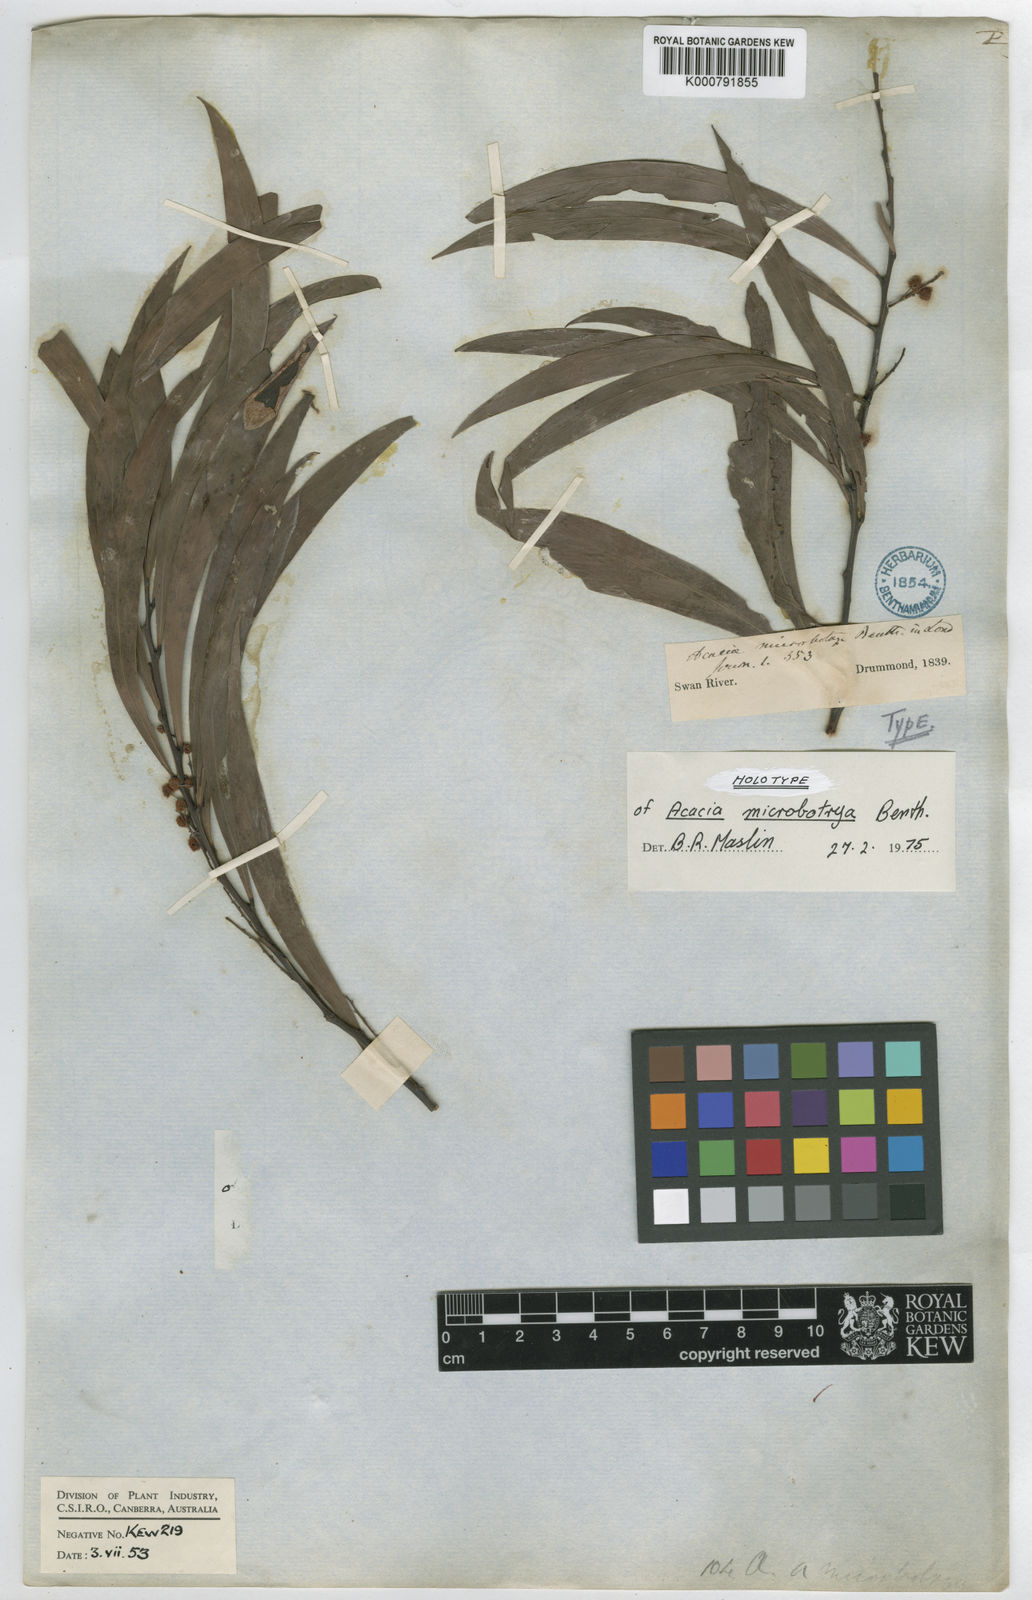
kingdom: Plantae
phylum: Tracheophyta
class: Magnoliopsida
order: Fabales
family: Fabaceae
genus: Acacia
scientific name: Acacia microbotrya
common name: Manna wattle
